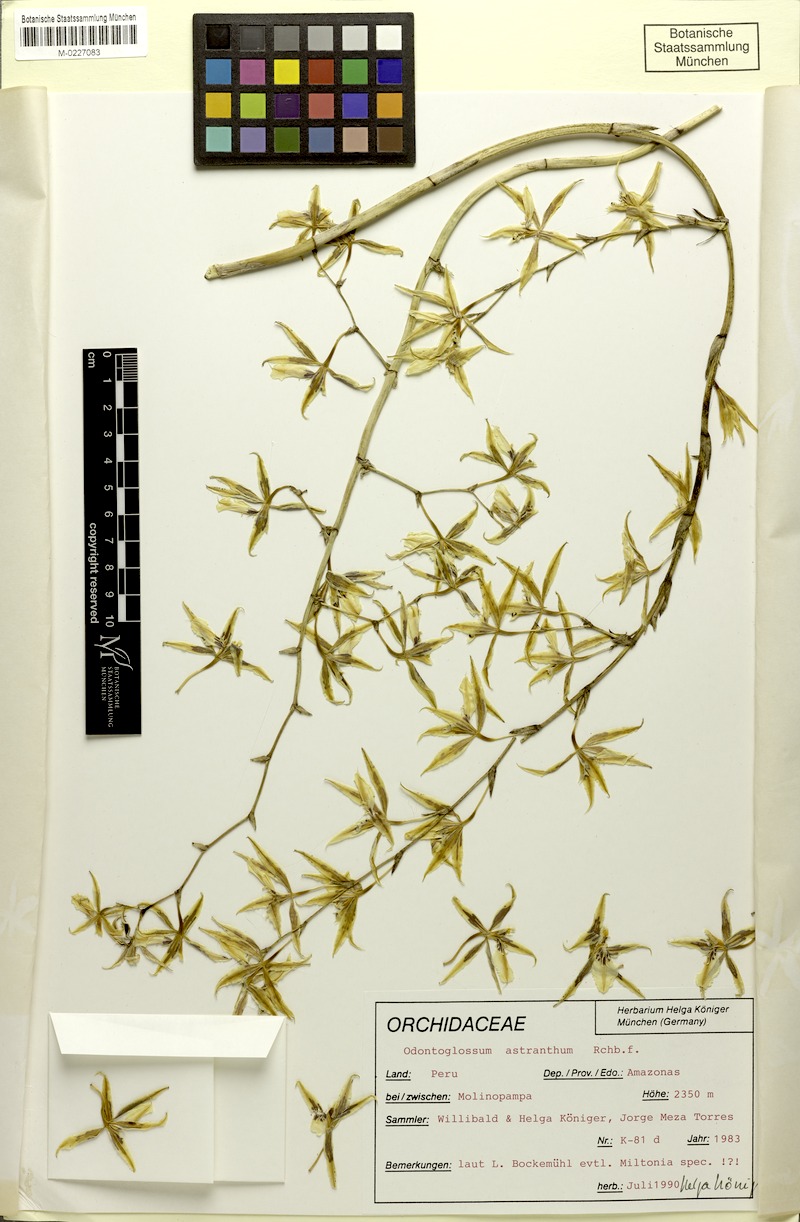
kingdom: Plantae
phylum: Tracheophyta
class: Liliopsida
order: Asparagales
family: Orchidaceae
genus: Oncidium
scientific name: Oncidium astranthum
